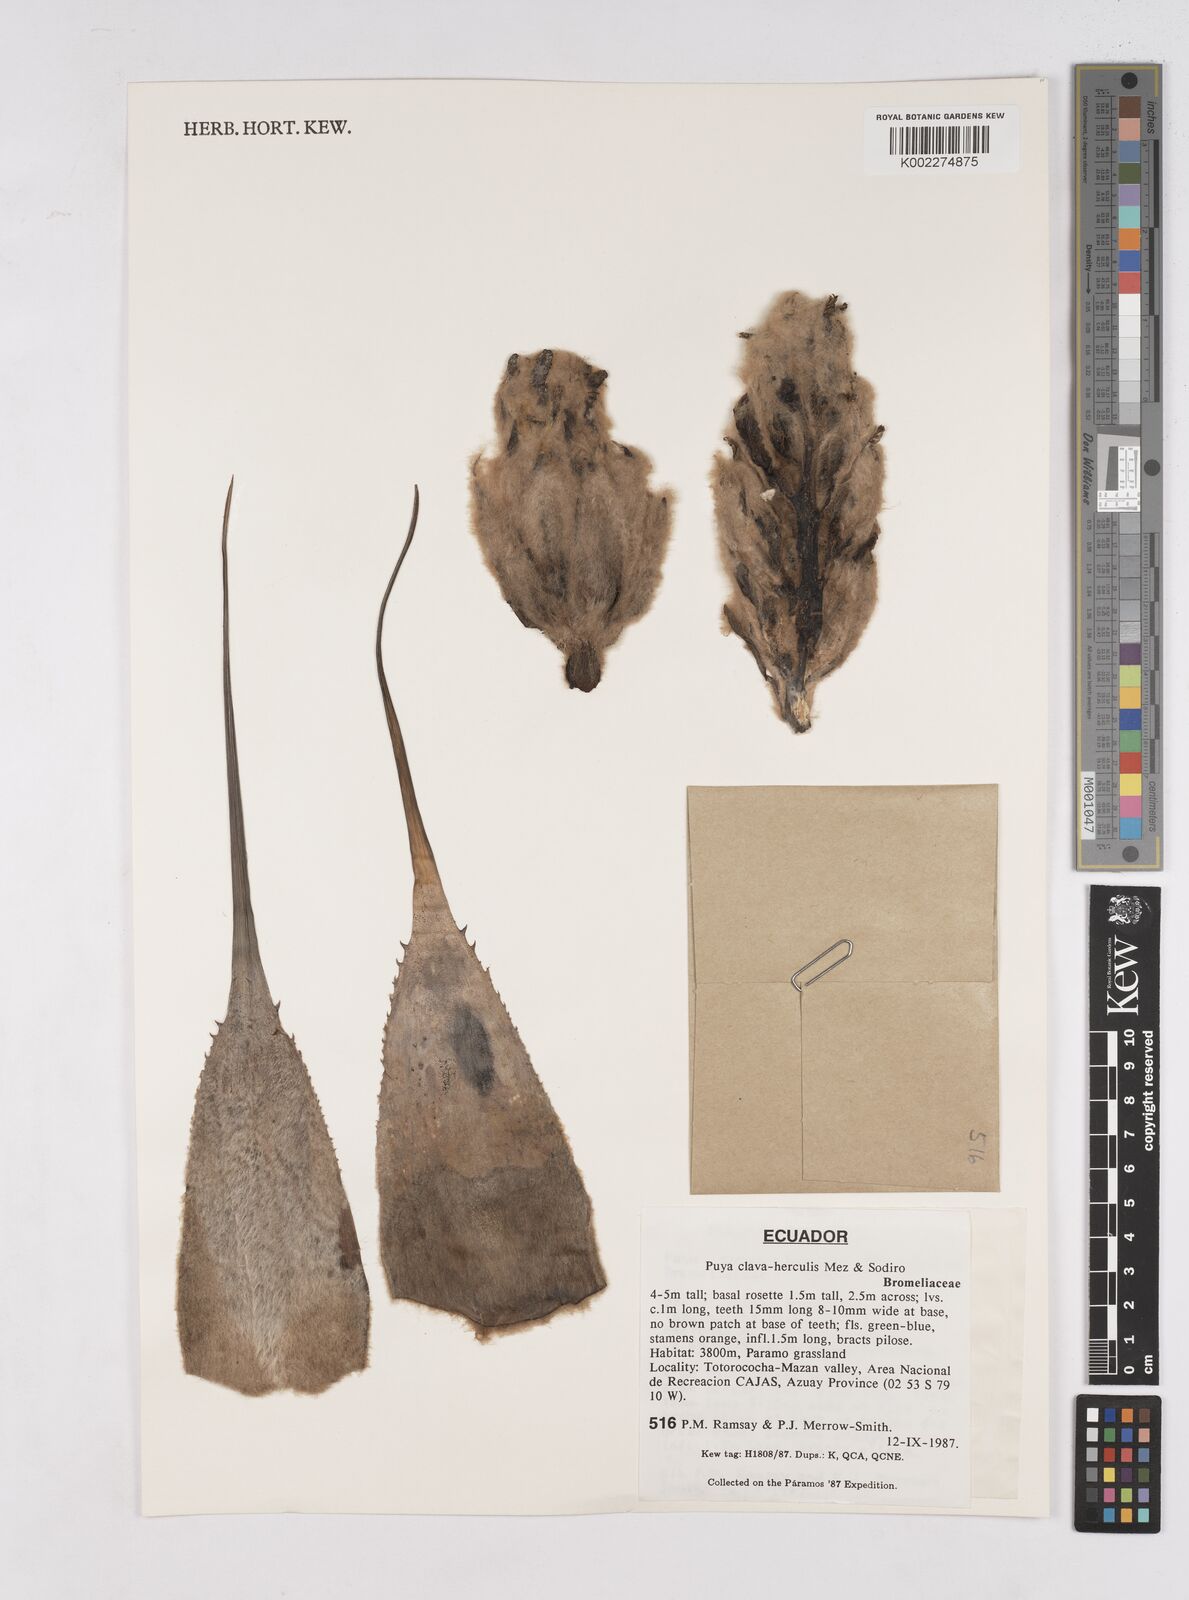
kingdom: Plantae
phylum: Tracheophyta
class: Liliopsida
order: Poales
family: Bromeliaceae
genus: Puya
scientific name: Puya clava-herculis
